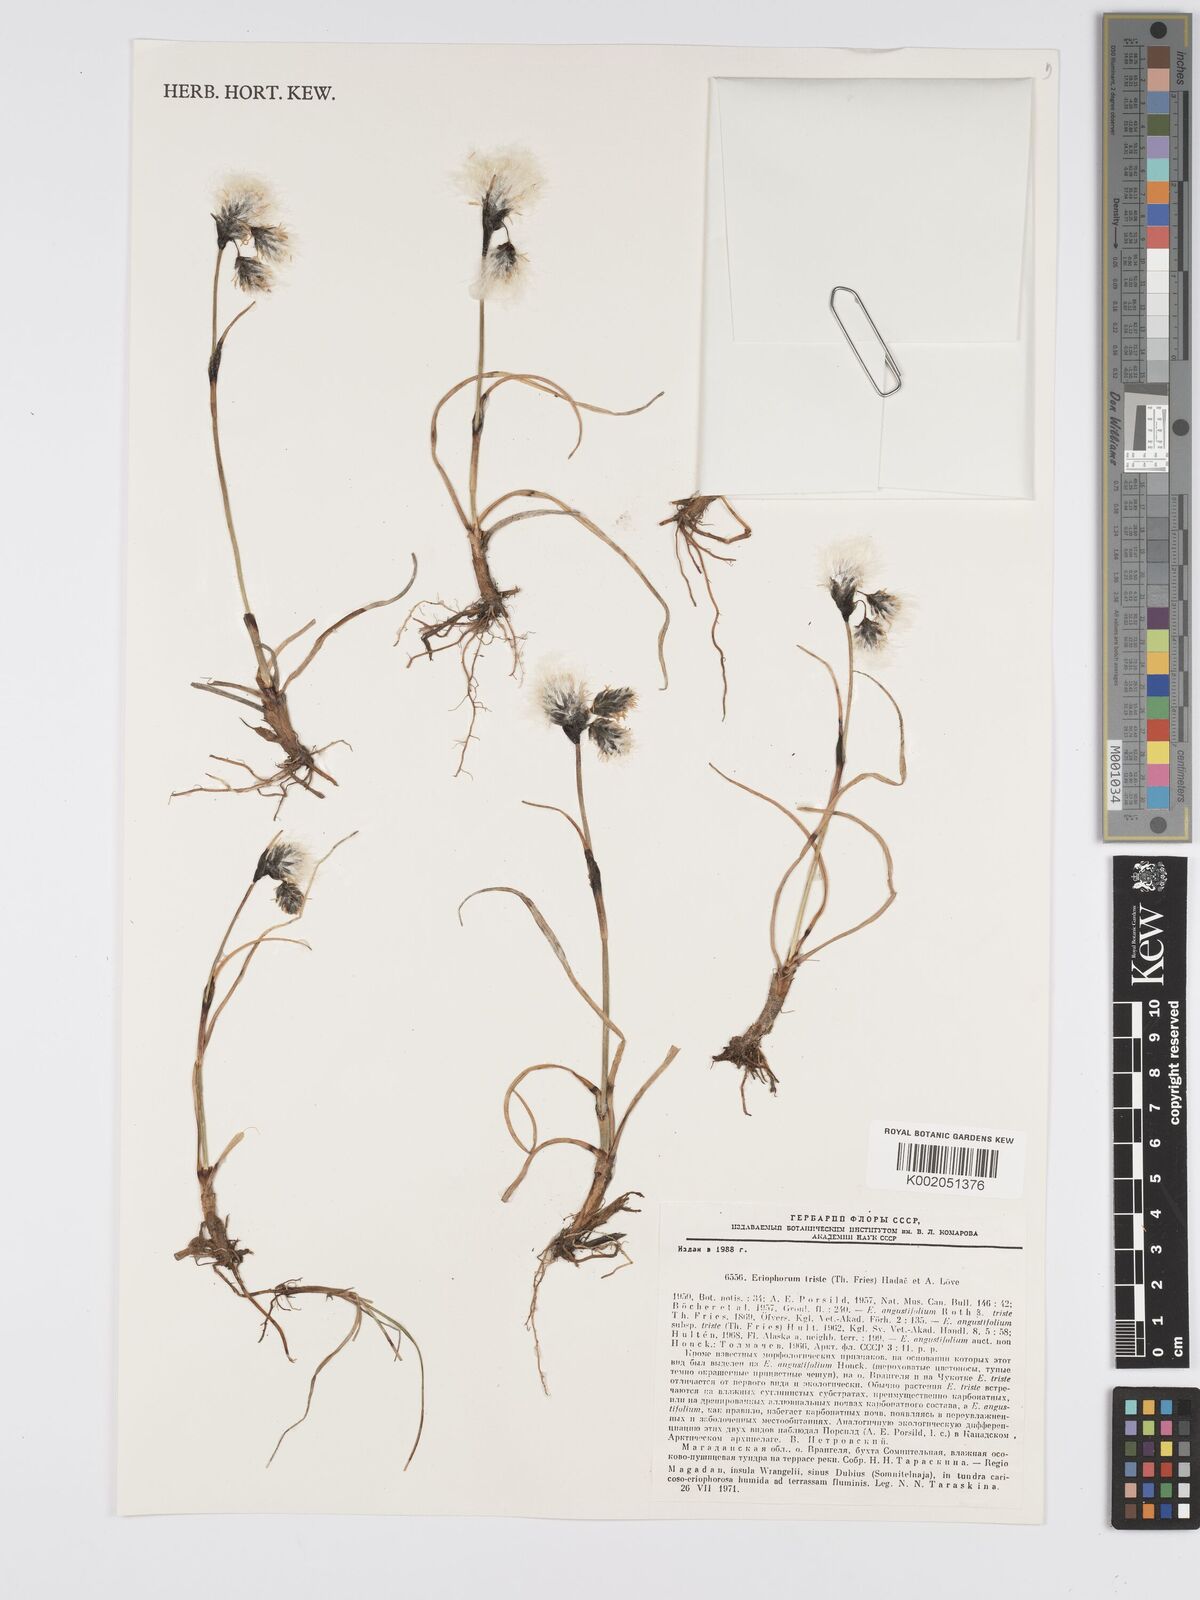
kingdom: Plantae
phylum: Tracheophyta
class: Liliopsida
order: Poales
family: Cyperaceae
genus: Eriophorum
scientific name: Eriophorum triste
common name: Tall cottongrass
